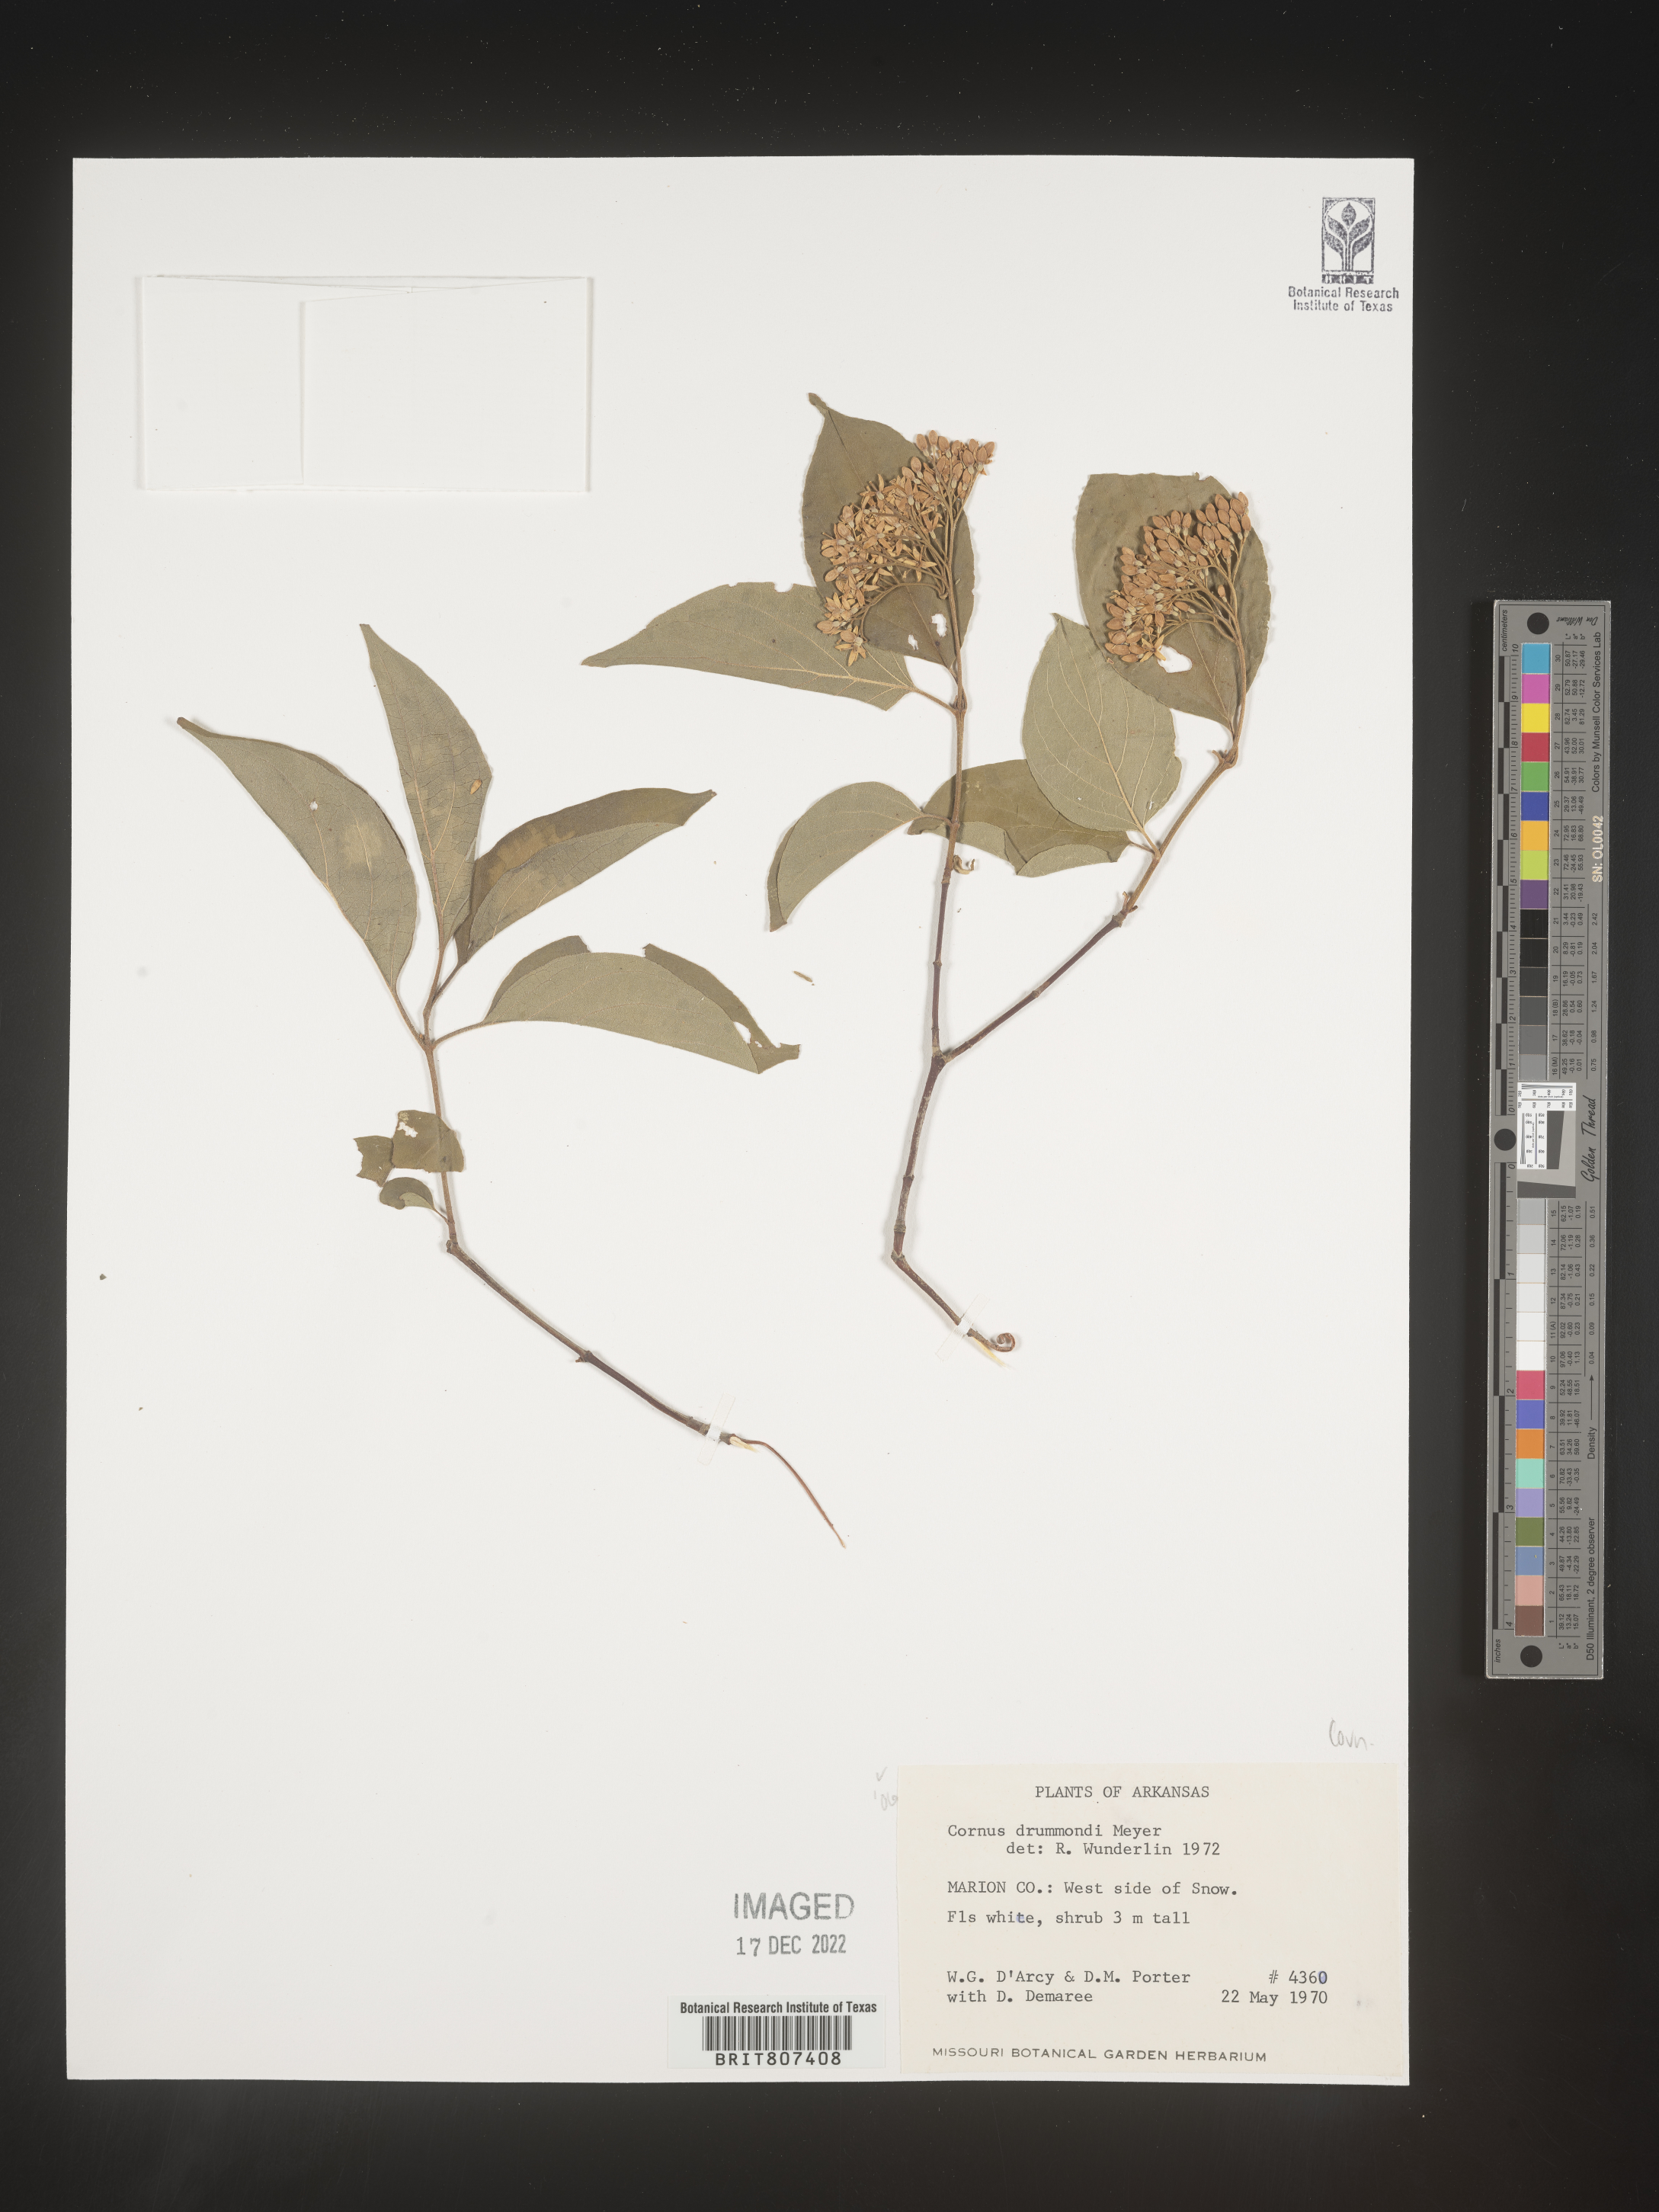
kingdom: Plantae
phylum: Tracheophyta
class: Magnoliopsida
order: Cornales
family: Cornaceae
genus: Cornus
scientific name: Cornus drummondii
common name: Rough-leaf dogwood
